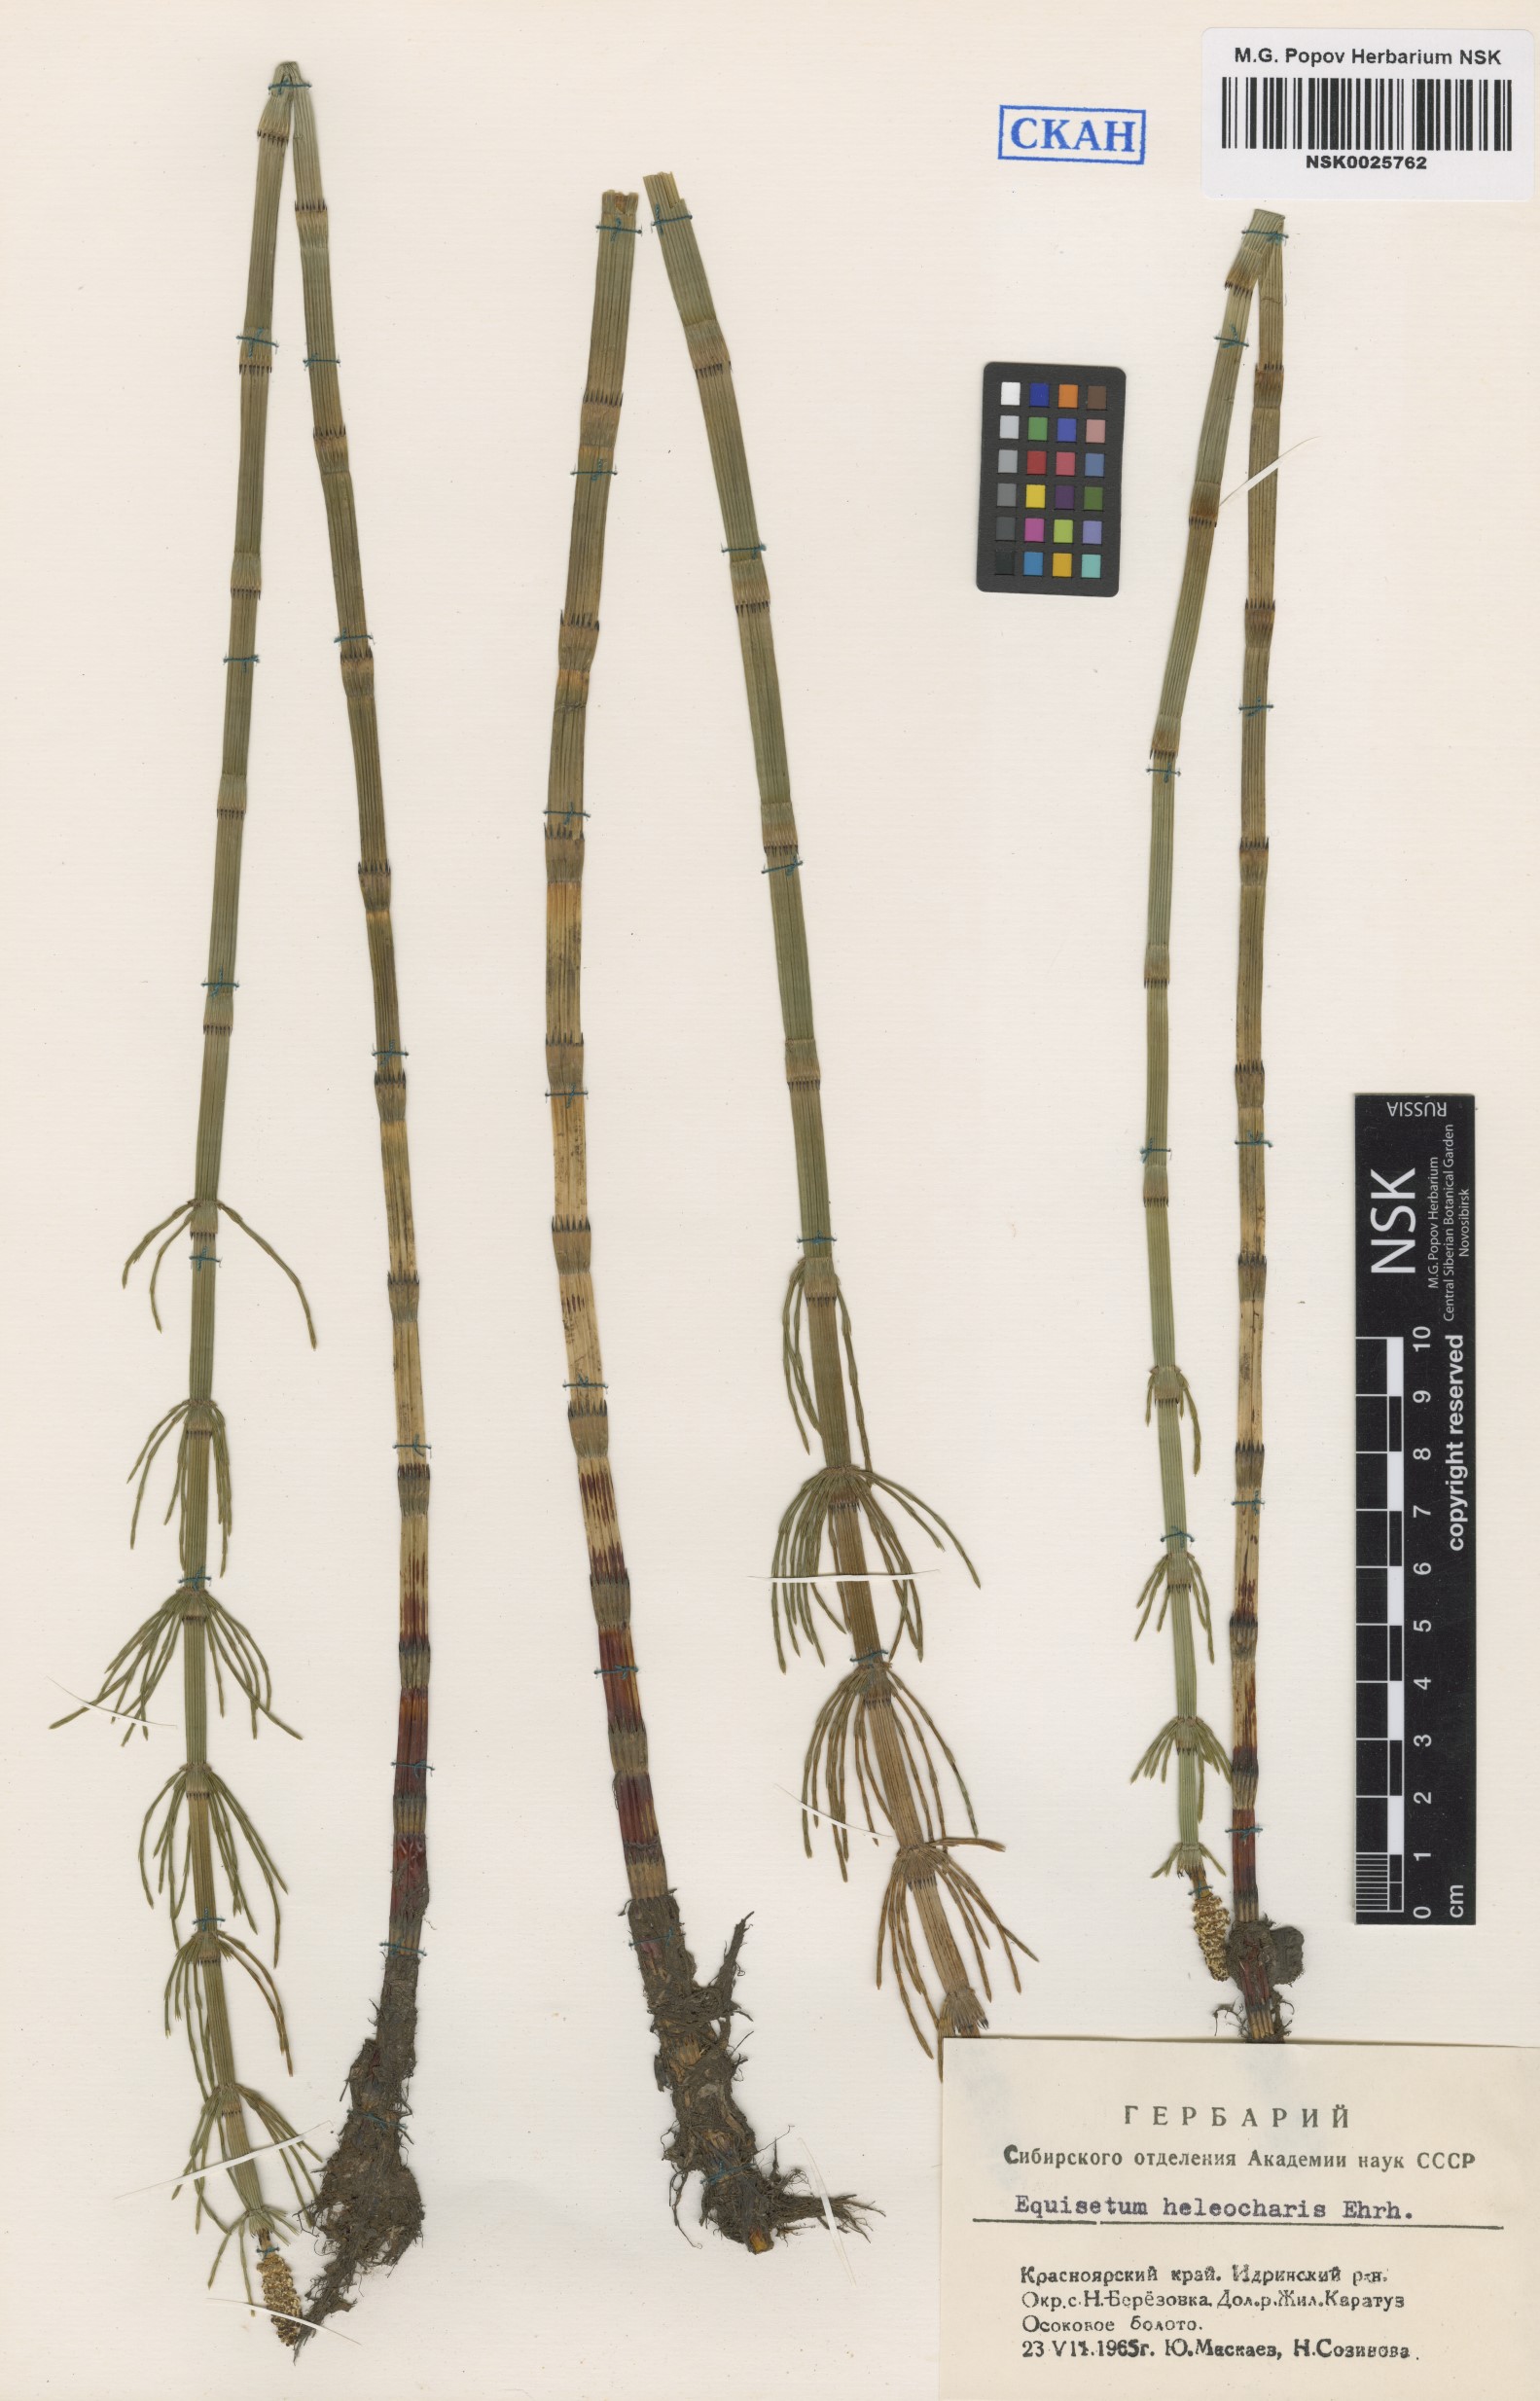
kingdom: Plantae
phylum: Tracheophyta
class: Polypodiopsida
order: Equisetales
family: Equisetaceae
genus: Equisetum
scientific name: Equisetum fluviatile
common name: Water horsetail
